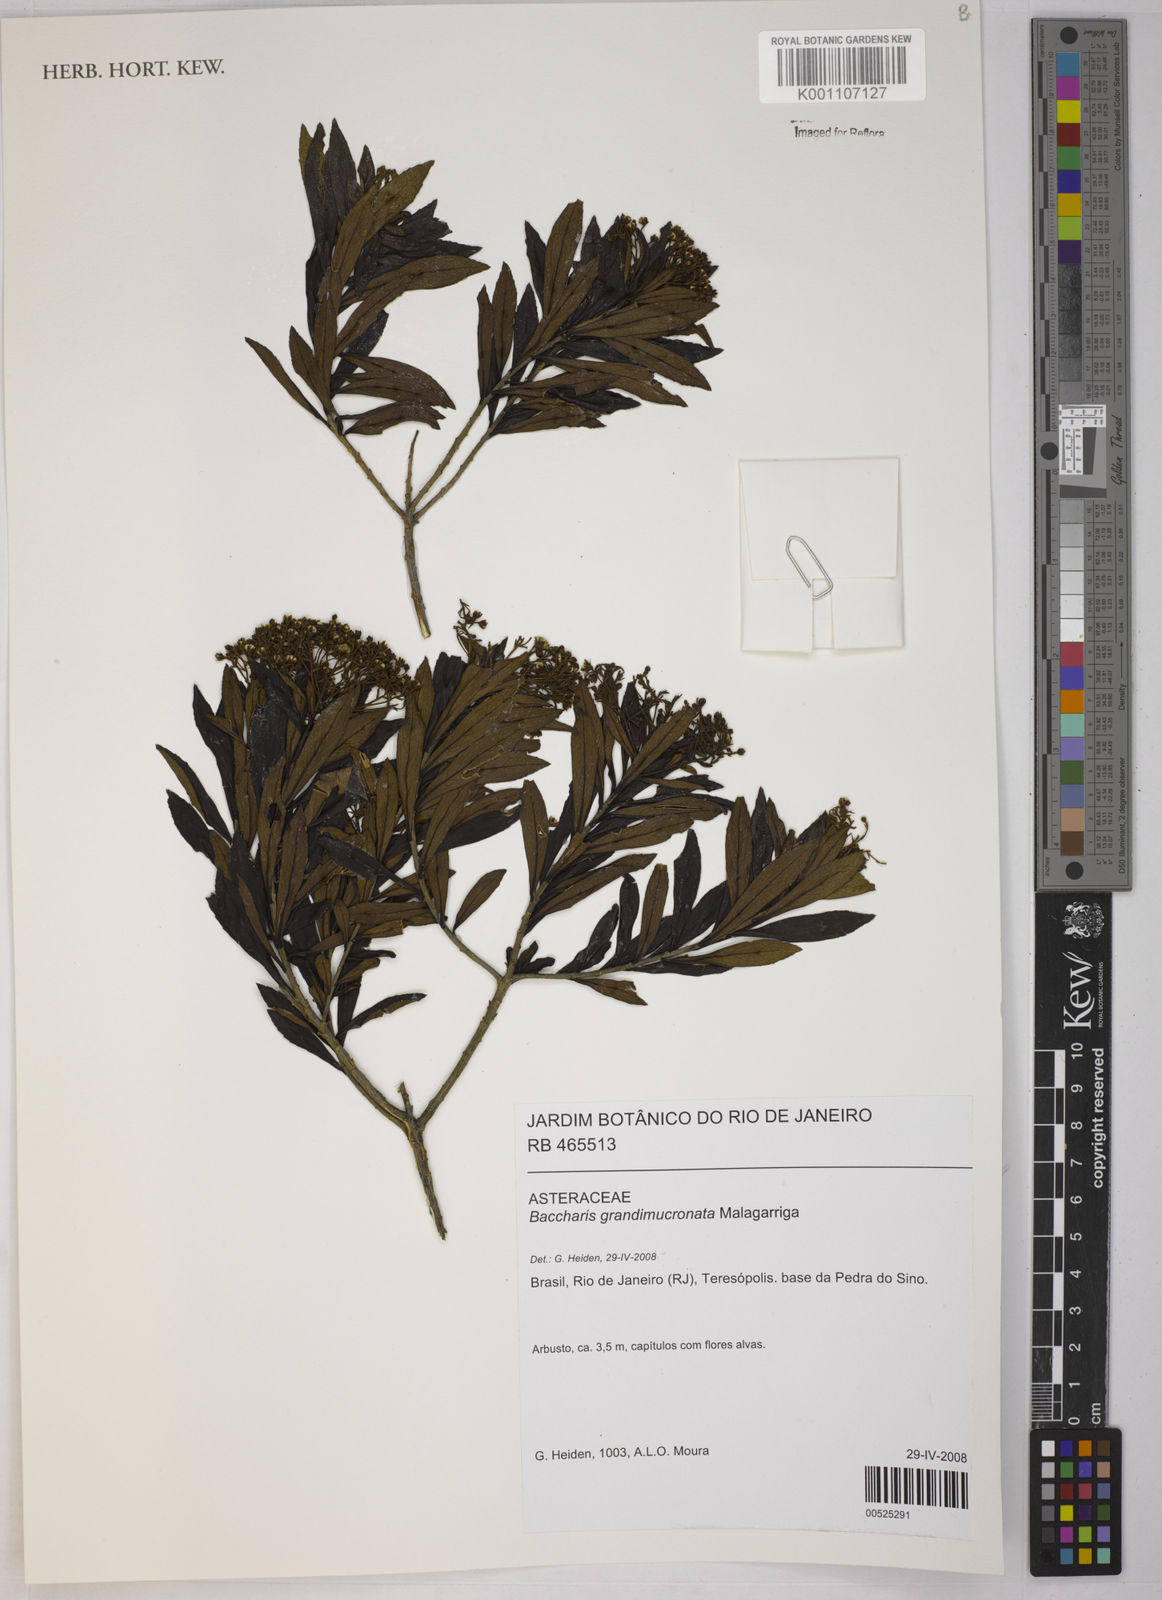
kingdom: Plantae
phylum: Tracheophyta
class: Magnoliopsida
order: Asterales
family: Asteraceae
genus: Baccharis
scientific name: Baccharis grandimucronata
